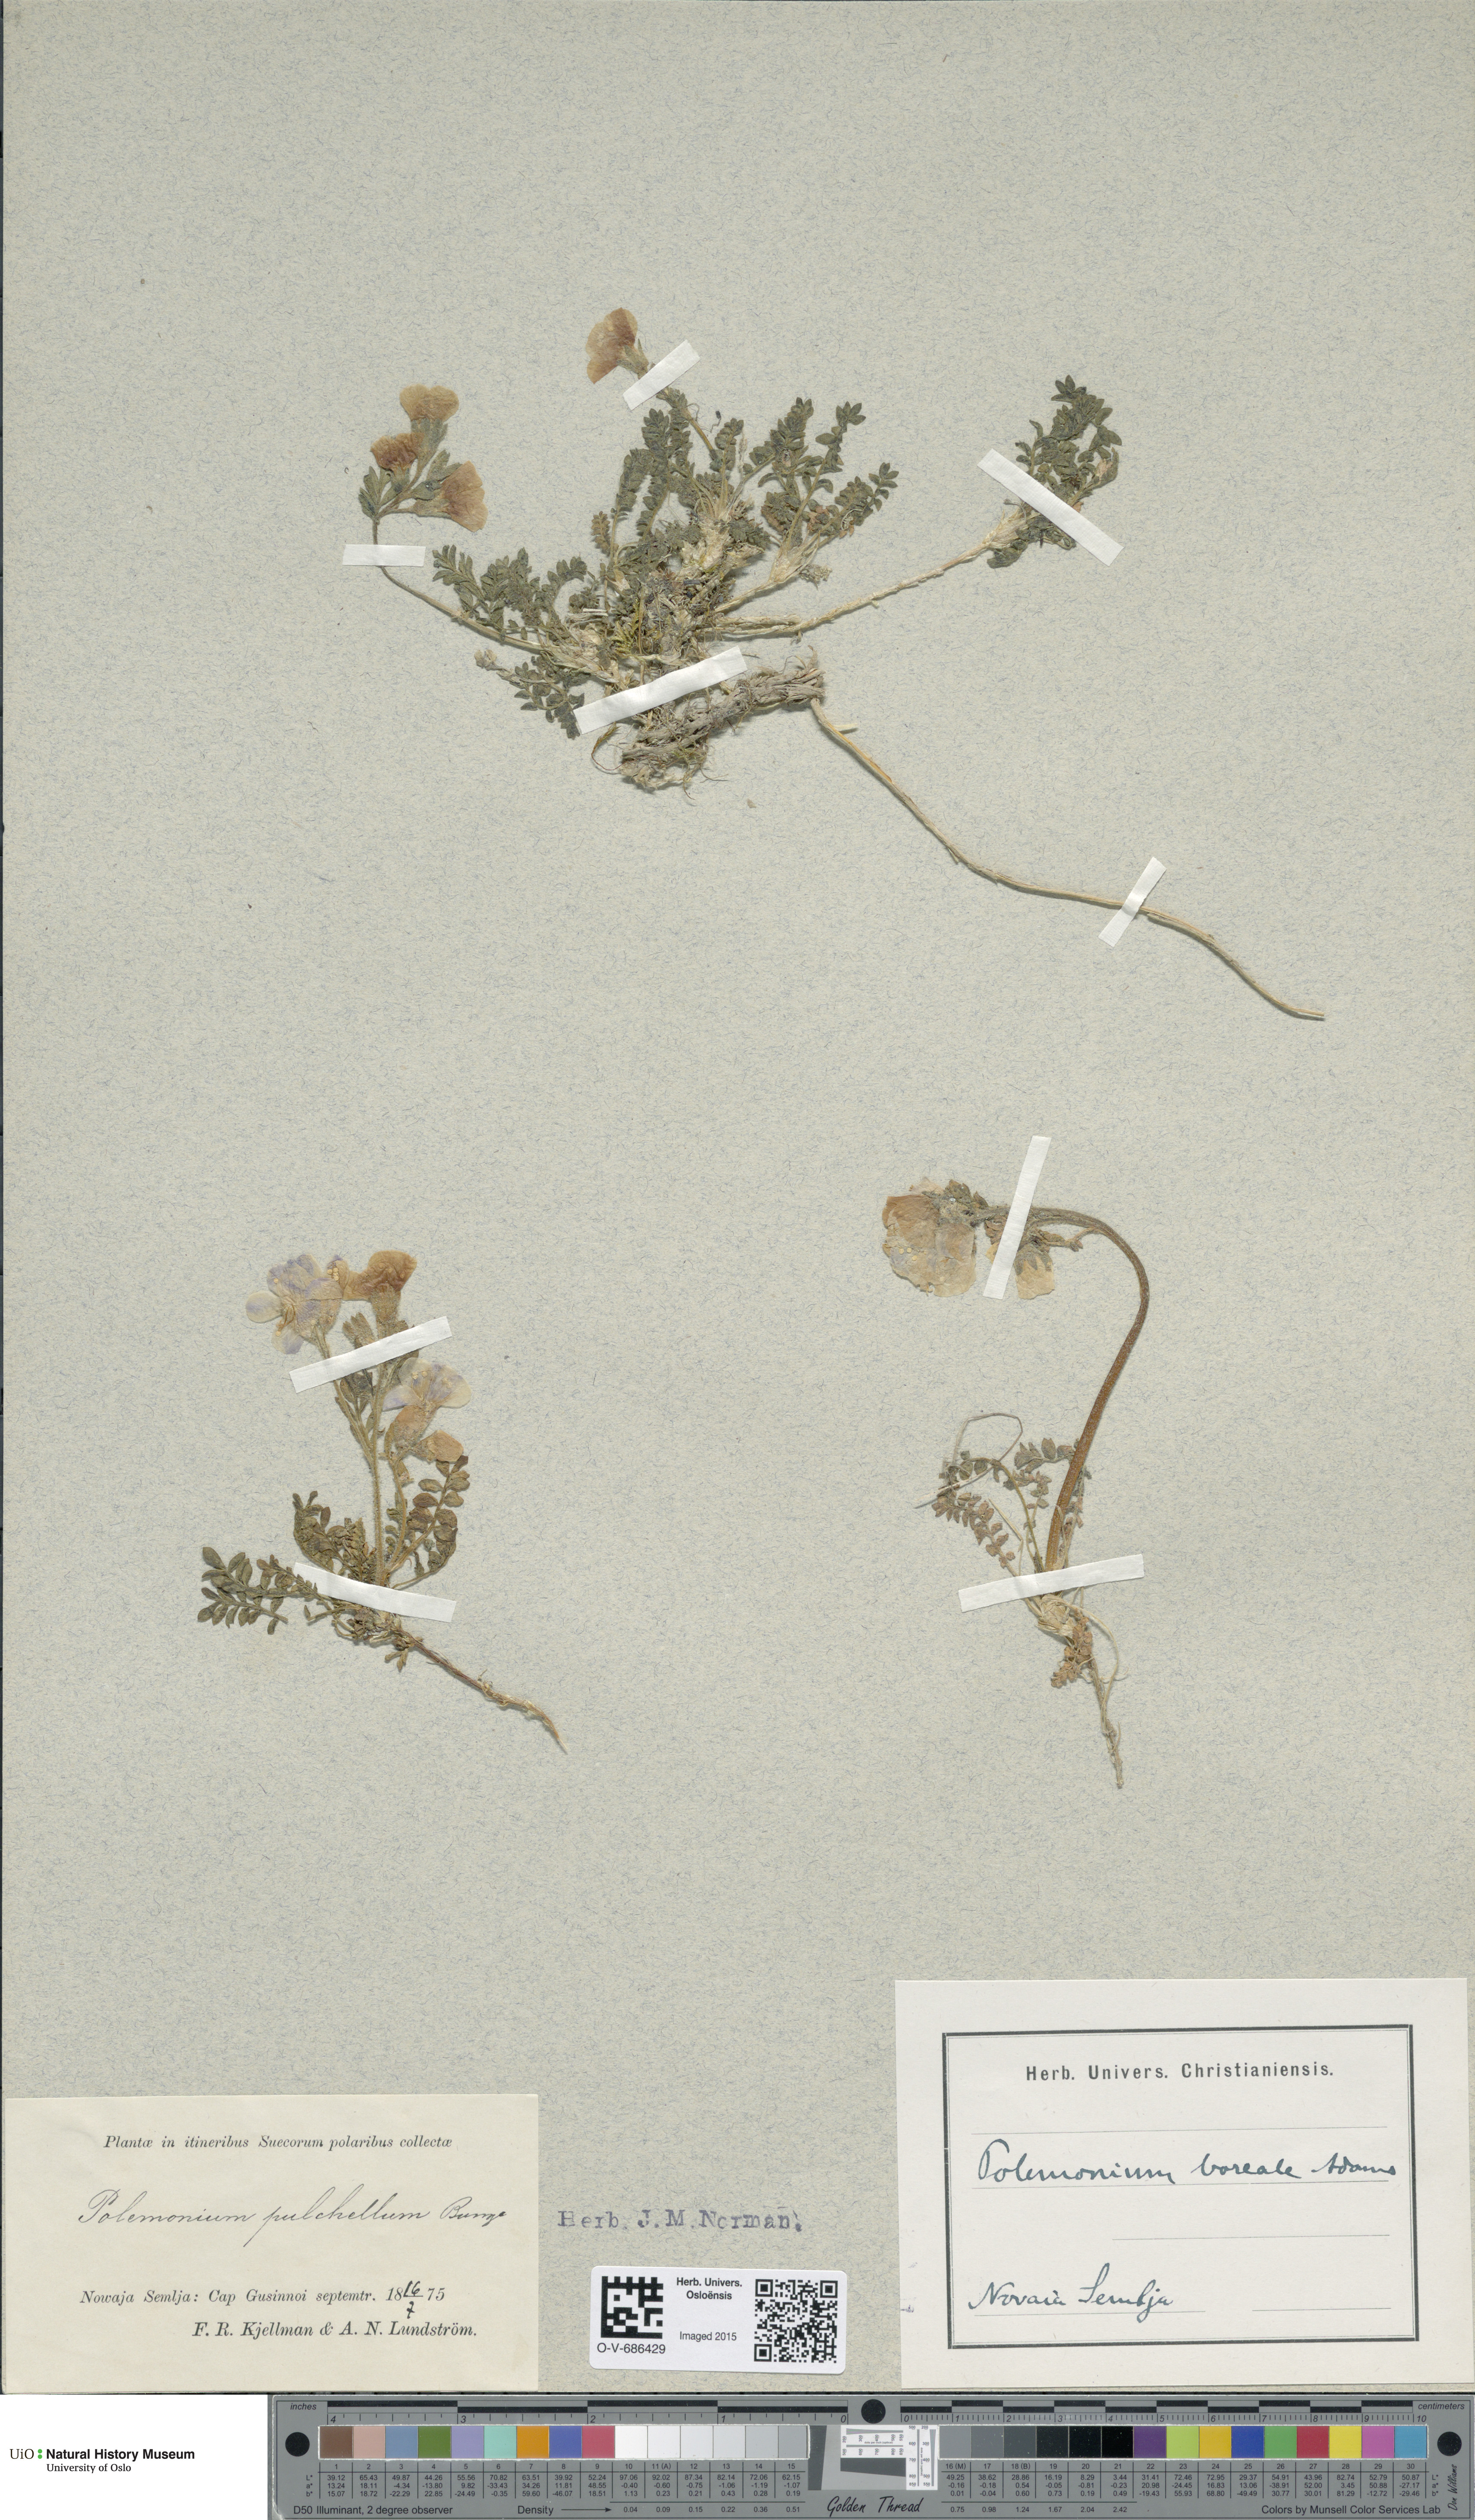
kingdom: Plantae
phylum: Tracheophyta
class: Magnoliopsida
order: Ericales
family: Polemoniaceae
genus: Polemonium
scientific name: Polemonium boreale
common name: Boreal jacob's-ladder
